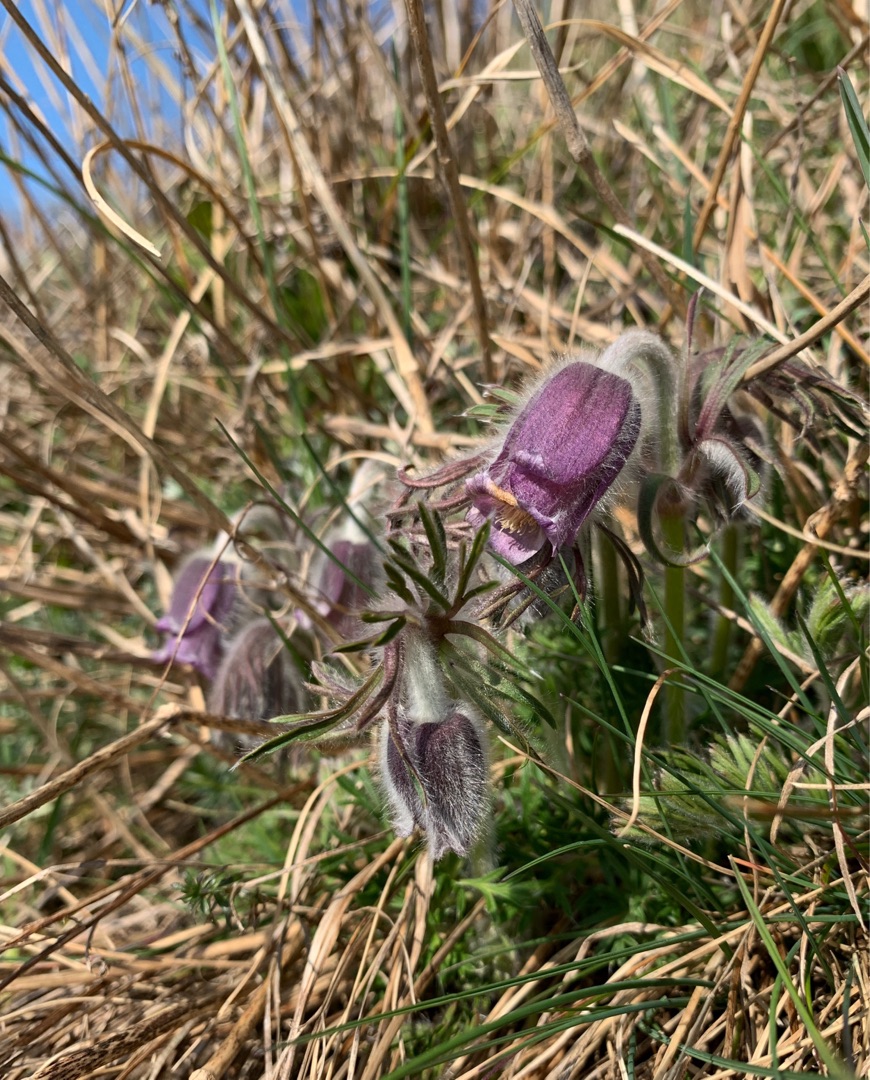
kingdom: Plantae
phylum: Tracheophyta
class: Magnoliopsida
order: Ranunculales
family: Ranunculaceae
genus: Pulsatilla
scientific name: Pulsatilla pratensis
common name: Nikkende kobjælde
